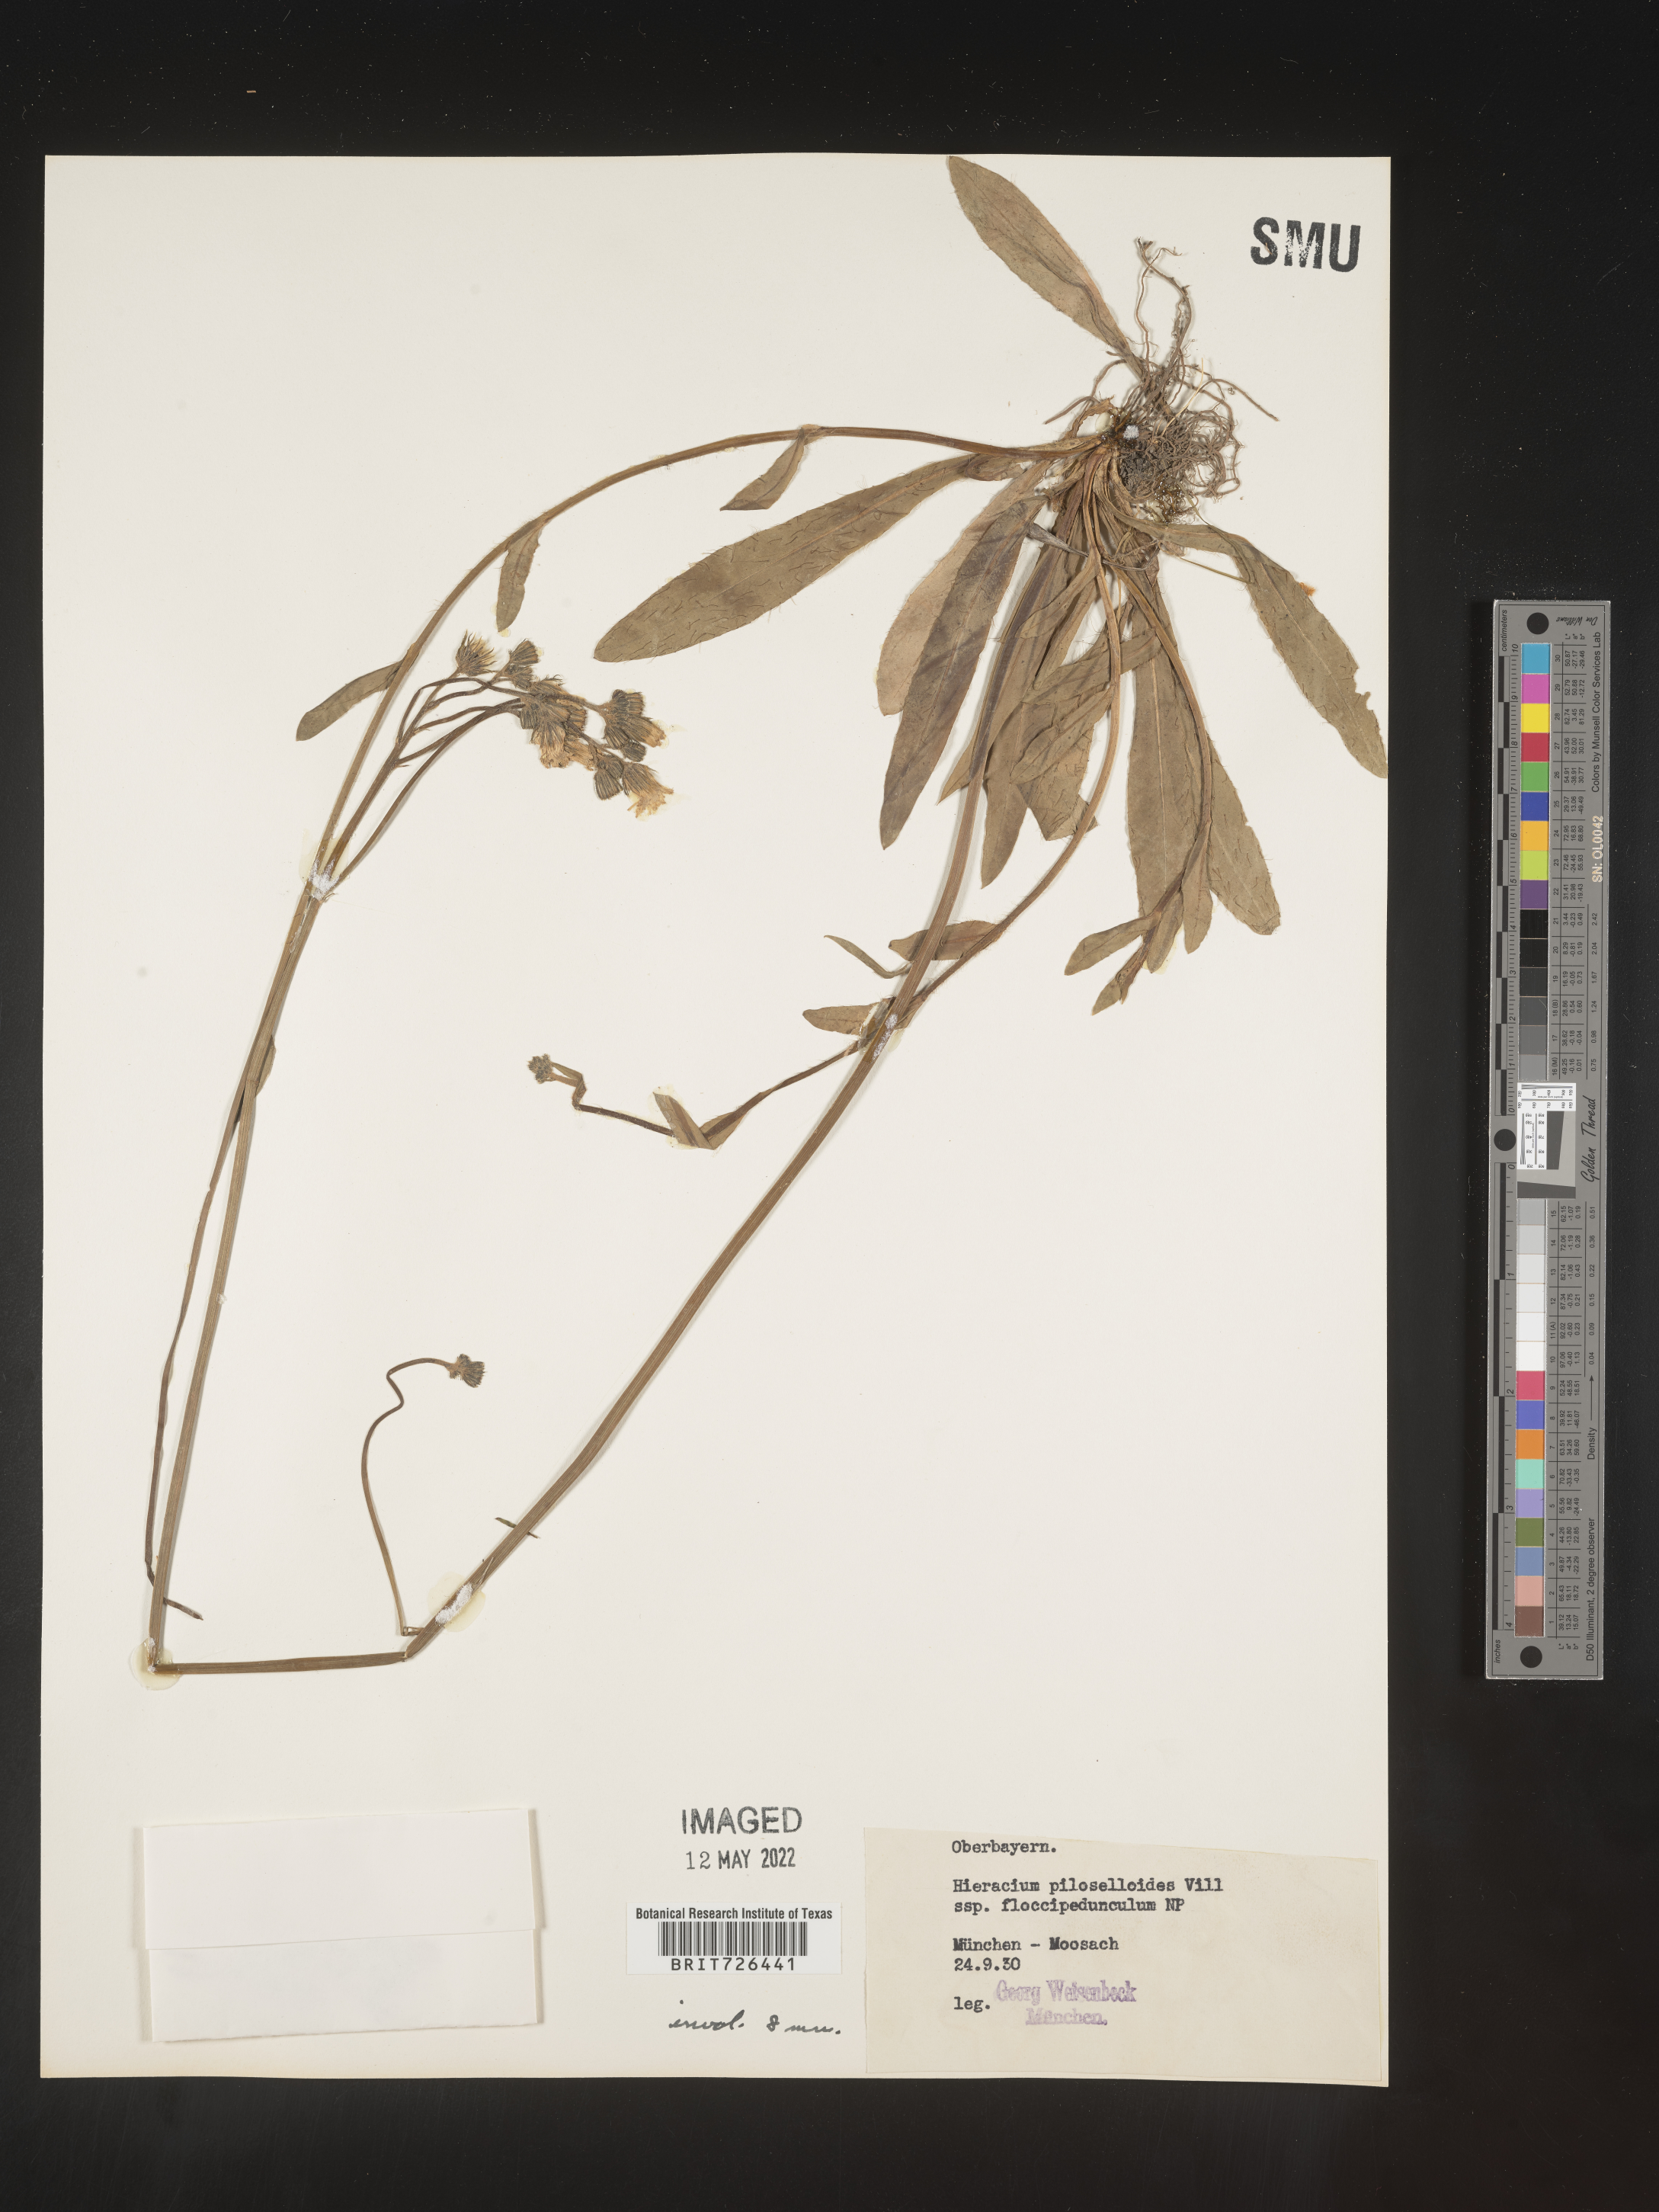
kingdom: Plantae
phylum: Tracheophyta
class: Magnoliopsida
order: Asterales
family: Asteraceae
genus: Hieracium
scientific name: Hieracium
